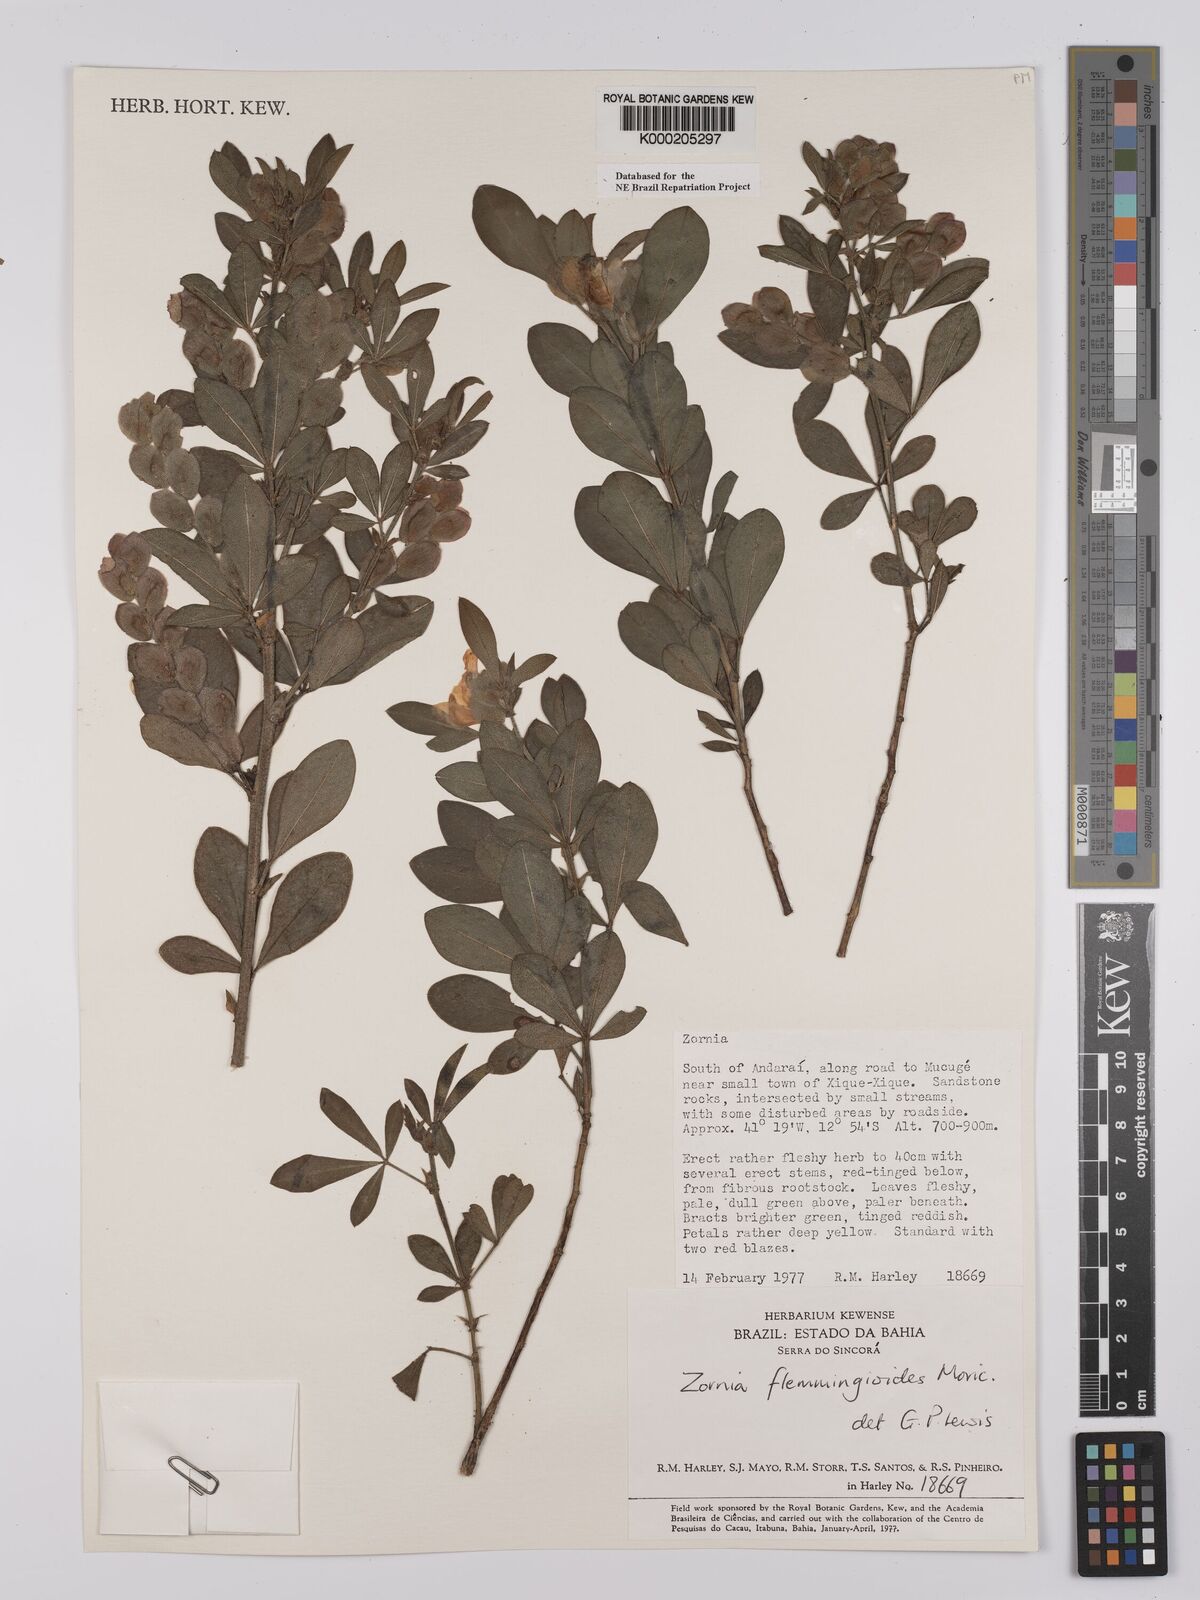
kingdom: Plantae
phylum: Tracheophyta
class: Magnoliopsida
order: Fabales
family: Fabaceae
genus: Zornia
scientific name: Zornia flemmingioides
